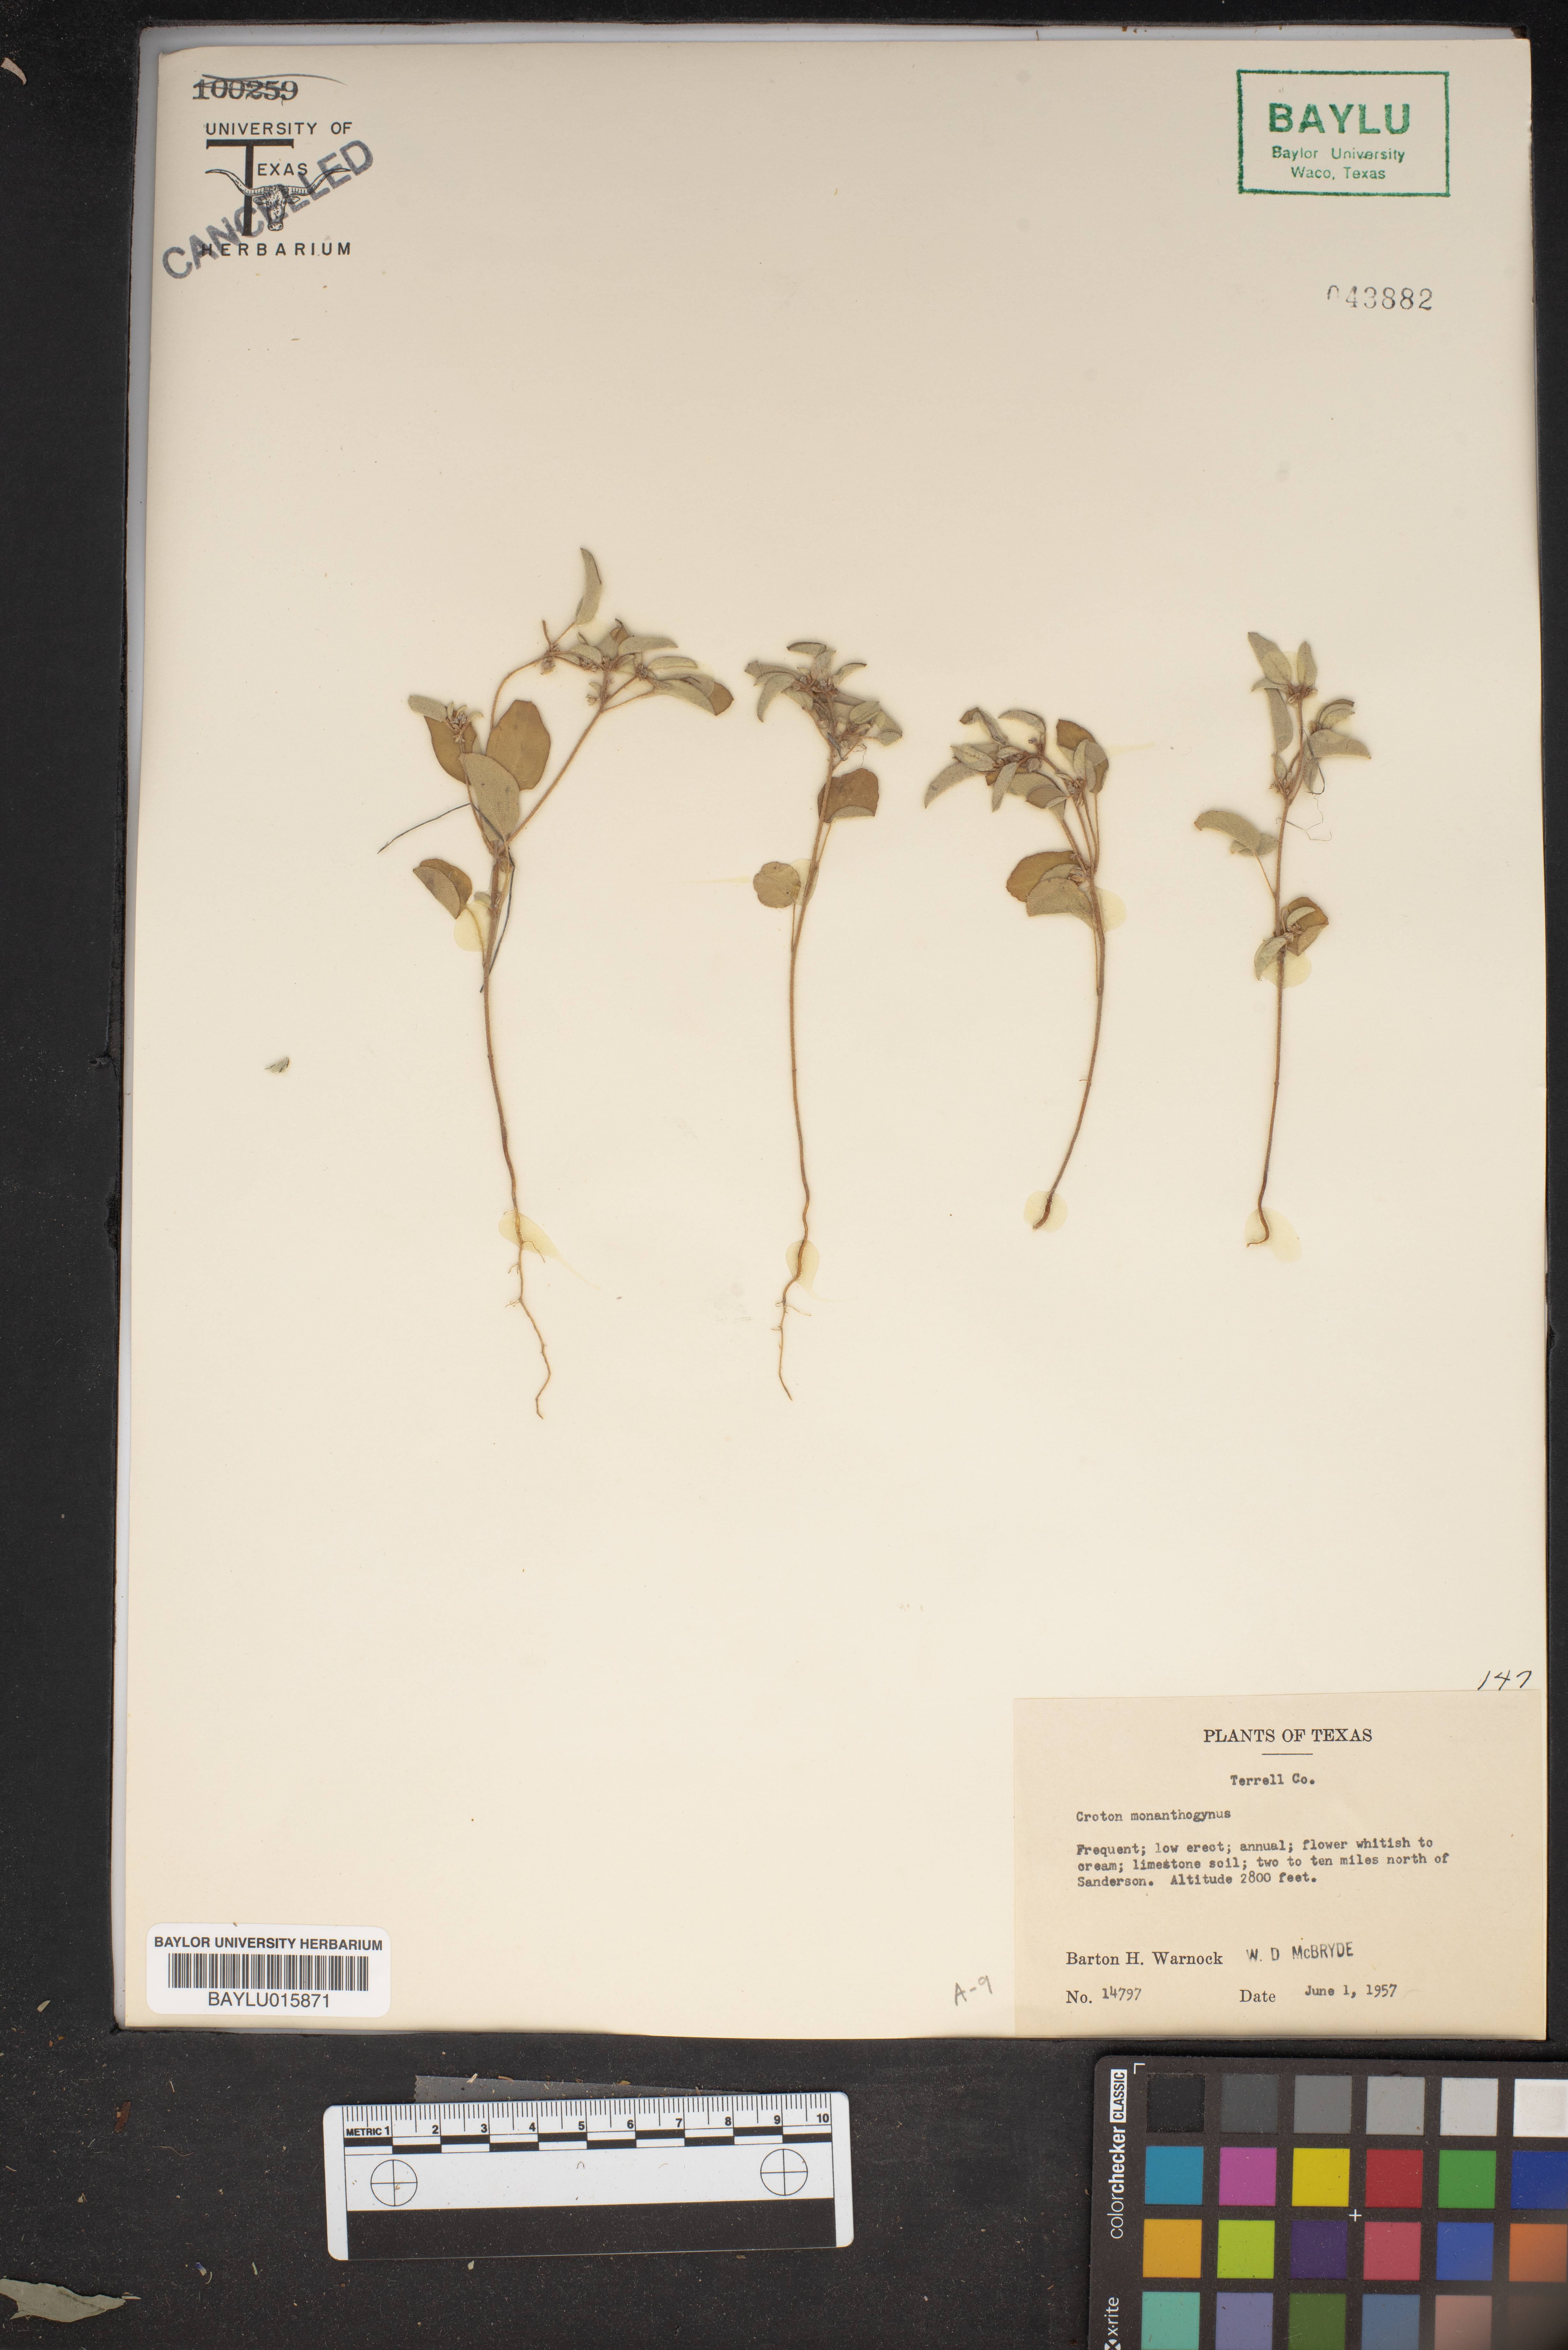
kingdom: Plantae
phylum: Tracheophyta
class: Magnoliopsida
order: Malpighiales
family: Euphorbiaceae
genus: Croton
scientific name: Croton monanthogynus
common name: One-seed croton
